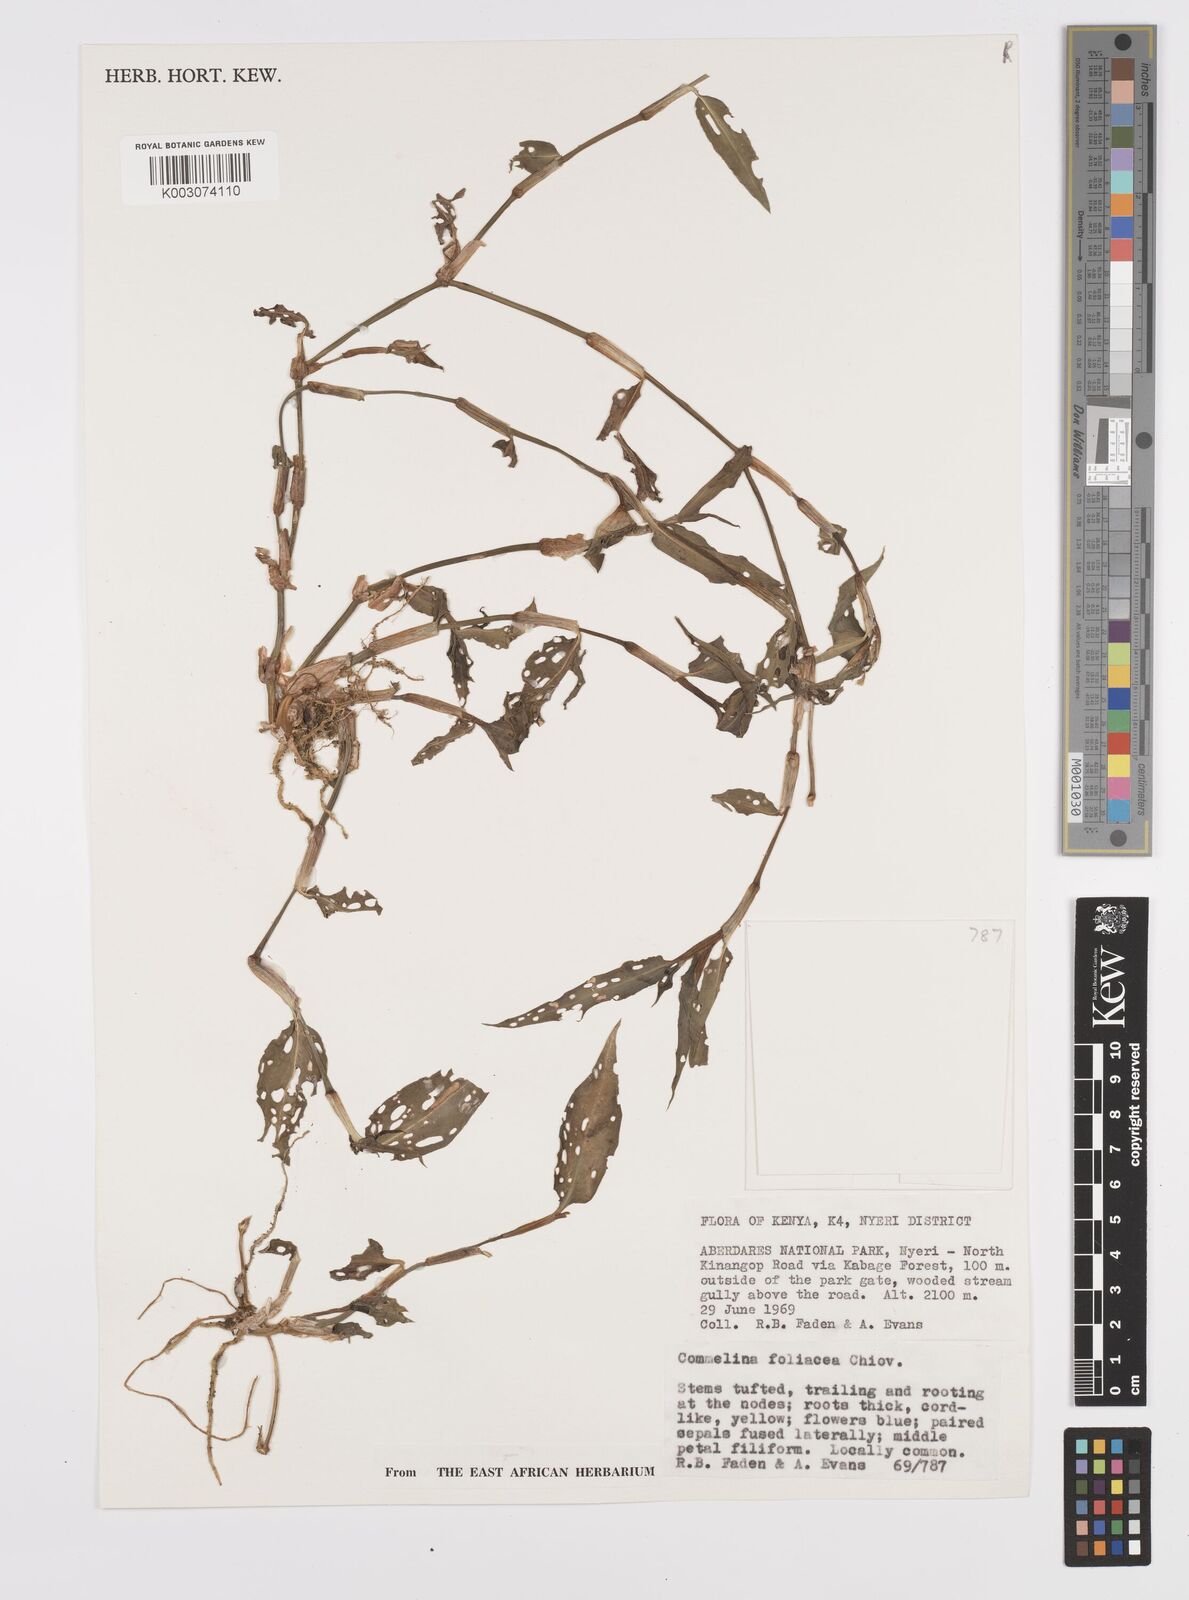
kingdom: Plantae
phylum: Tracheophyta
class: Liliopsida
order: Commelinales
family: Commelinaceae
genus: Commelina
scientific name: Commelina foliacea
